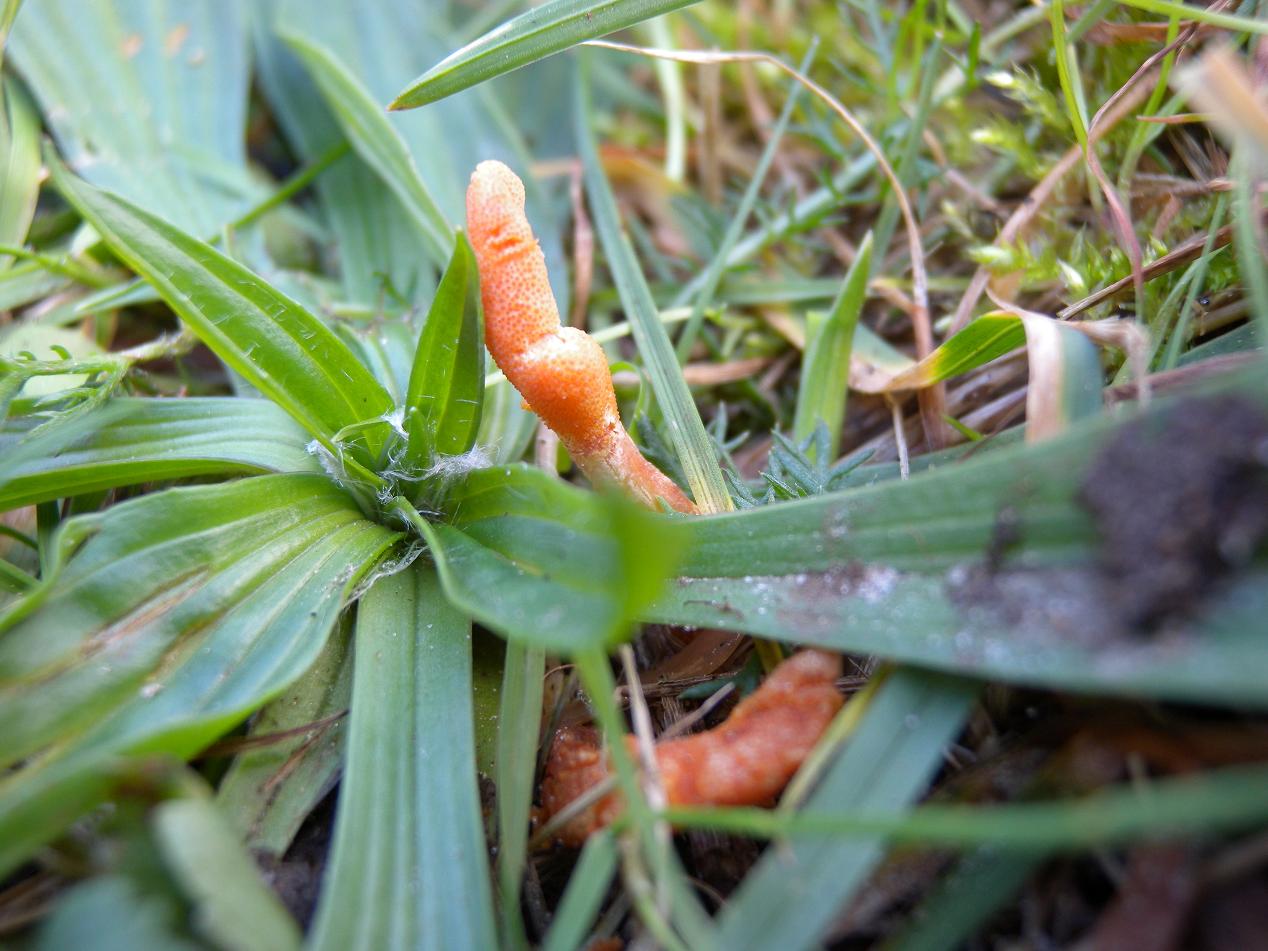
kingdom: Fungi
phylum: Ascomycota
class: Sordariomycetes
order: Hypocreales
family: Cordycipitaceae
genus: Cordyceps
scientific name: Cordyceps militaris
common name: puppe-snyltekølle
